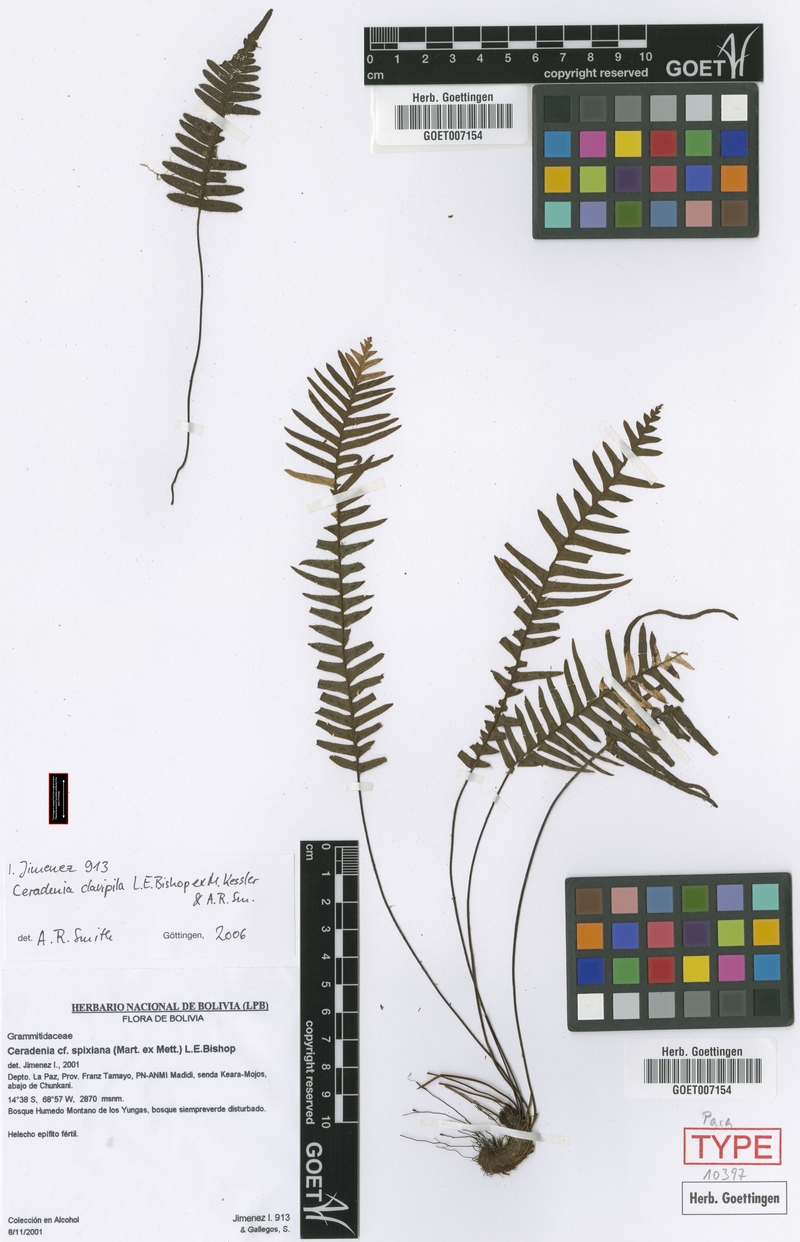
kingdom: Plantae
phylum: Tracheophyta
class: Polypodiopsida
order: Polypodiales
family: Polypodiaceae
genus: Ceradenia
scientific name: Ceradenia clavipila
